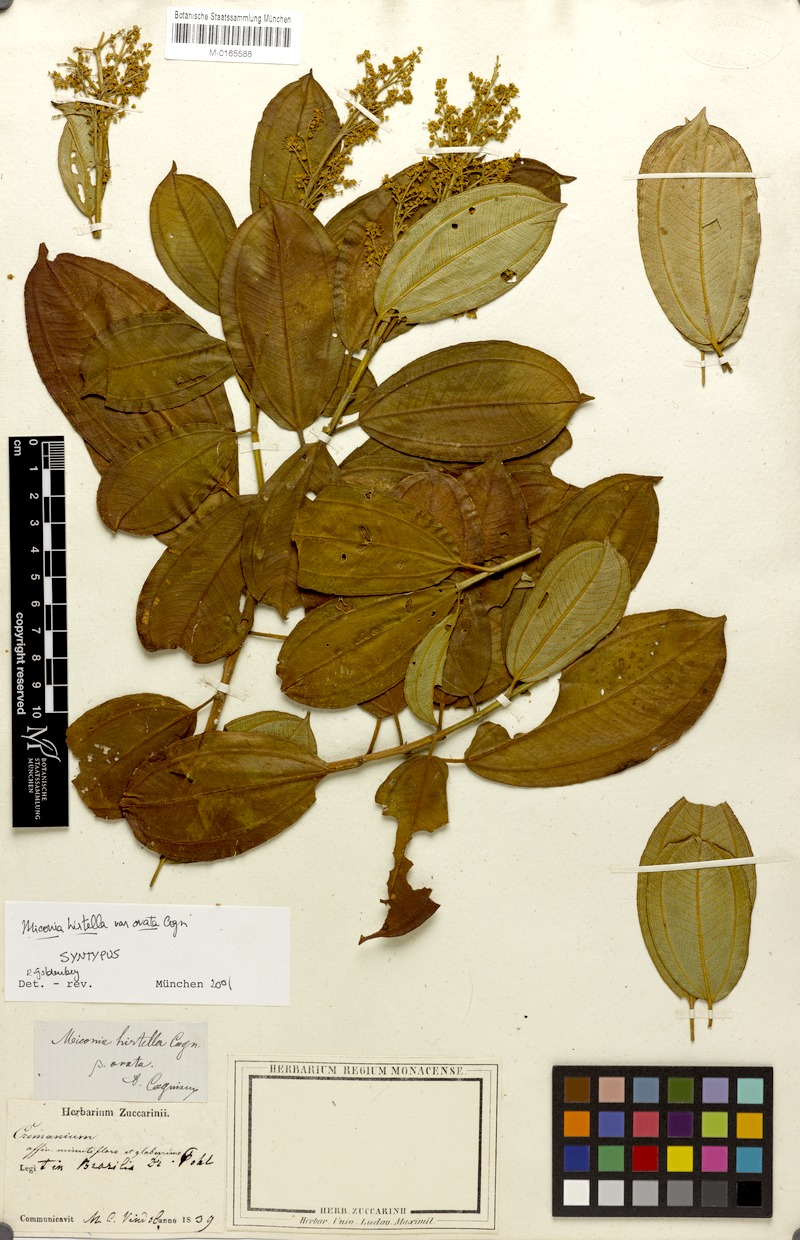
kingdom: Plantae
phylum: Tracheophyta
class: Magnoliopsida
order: Myrtales
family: Melastomataceae
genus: Miconia
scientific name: Miconia hirta
